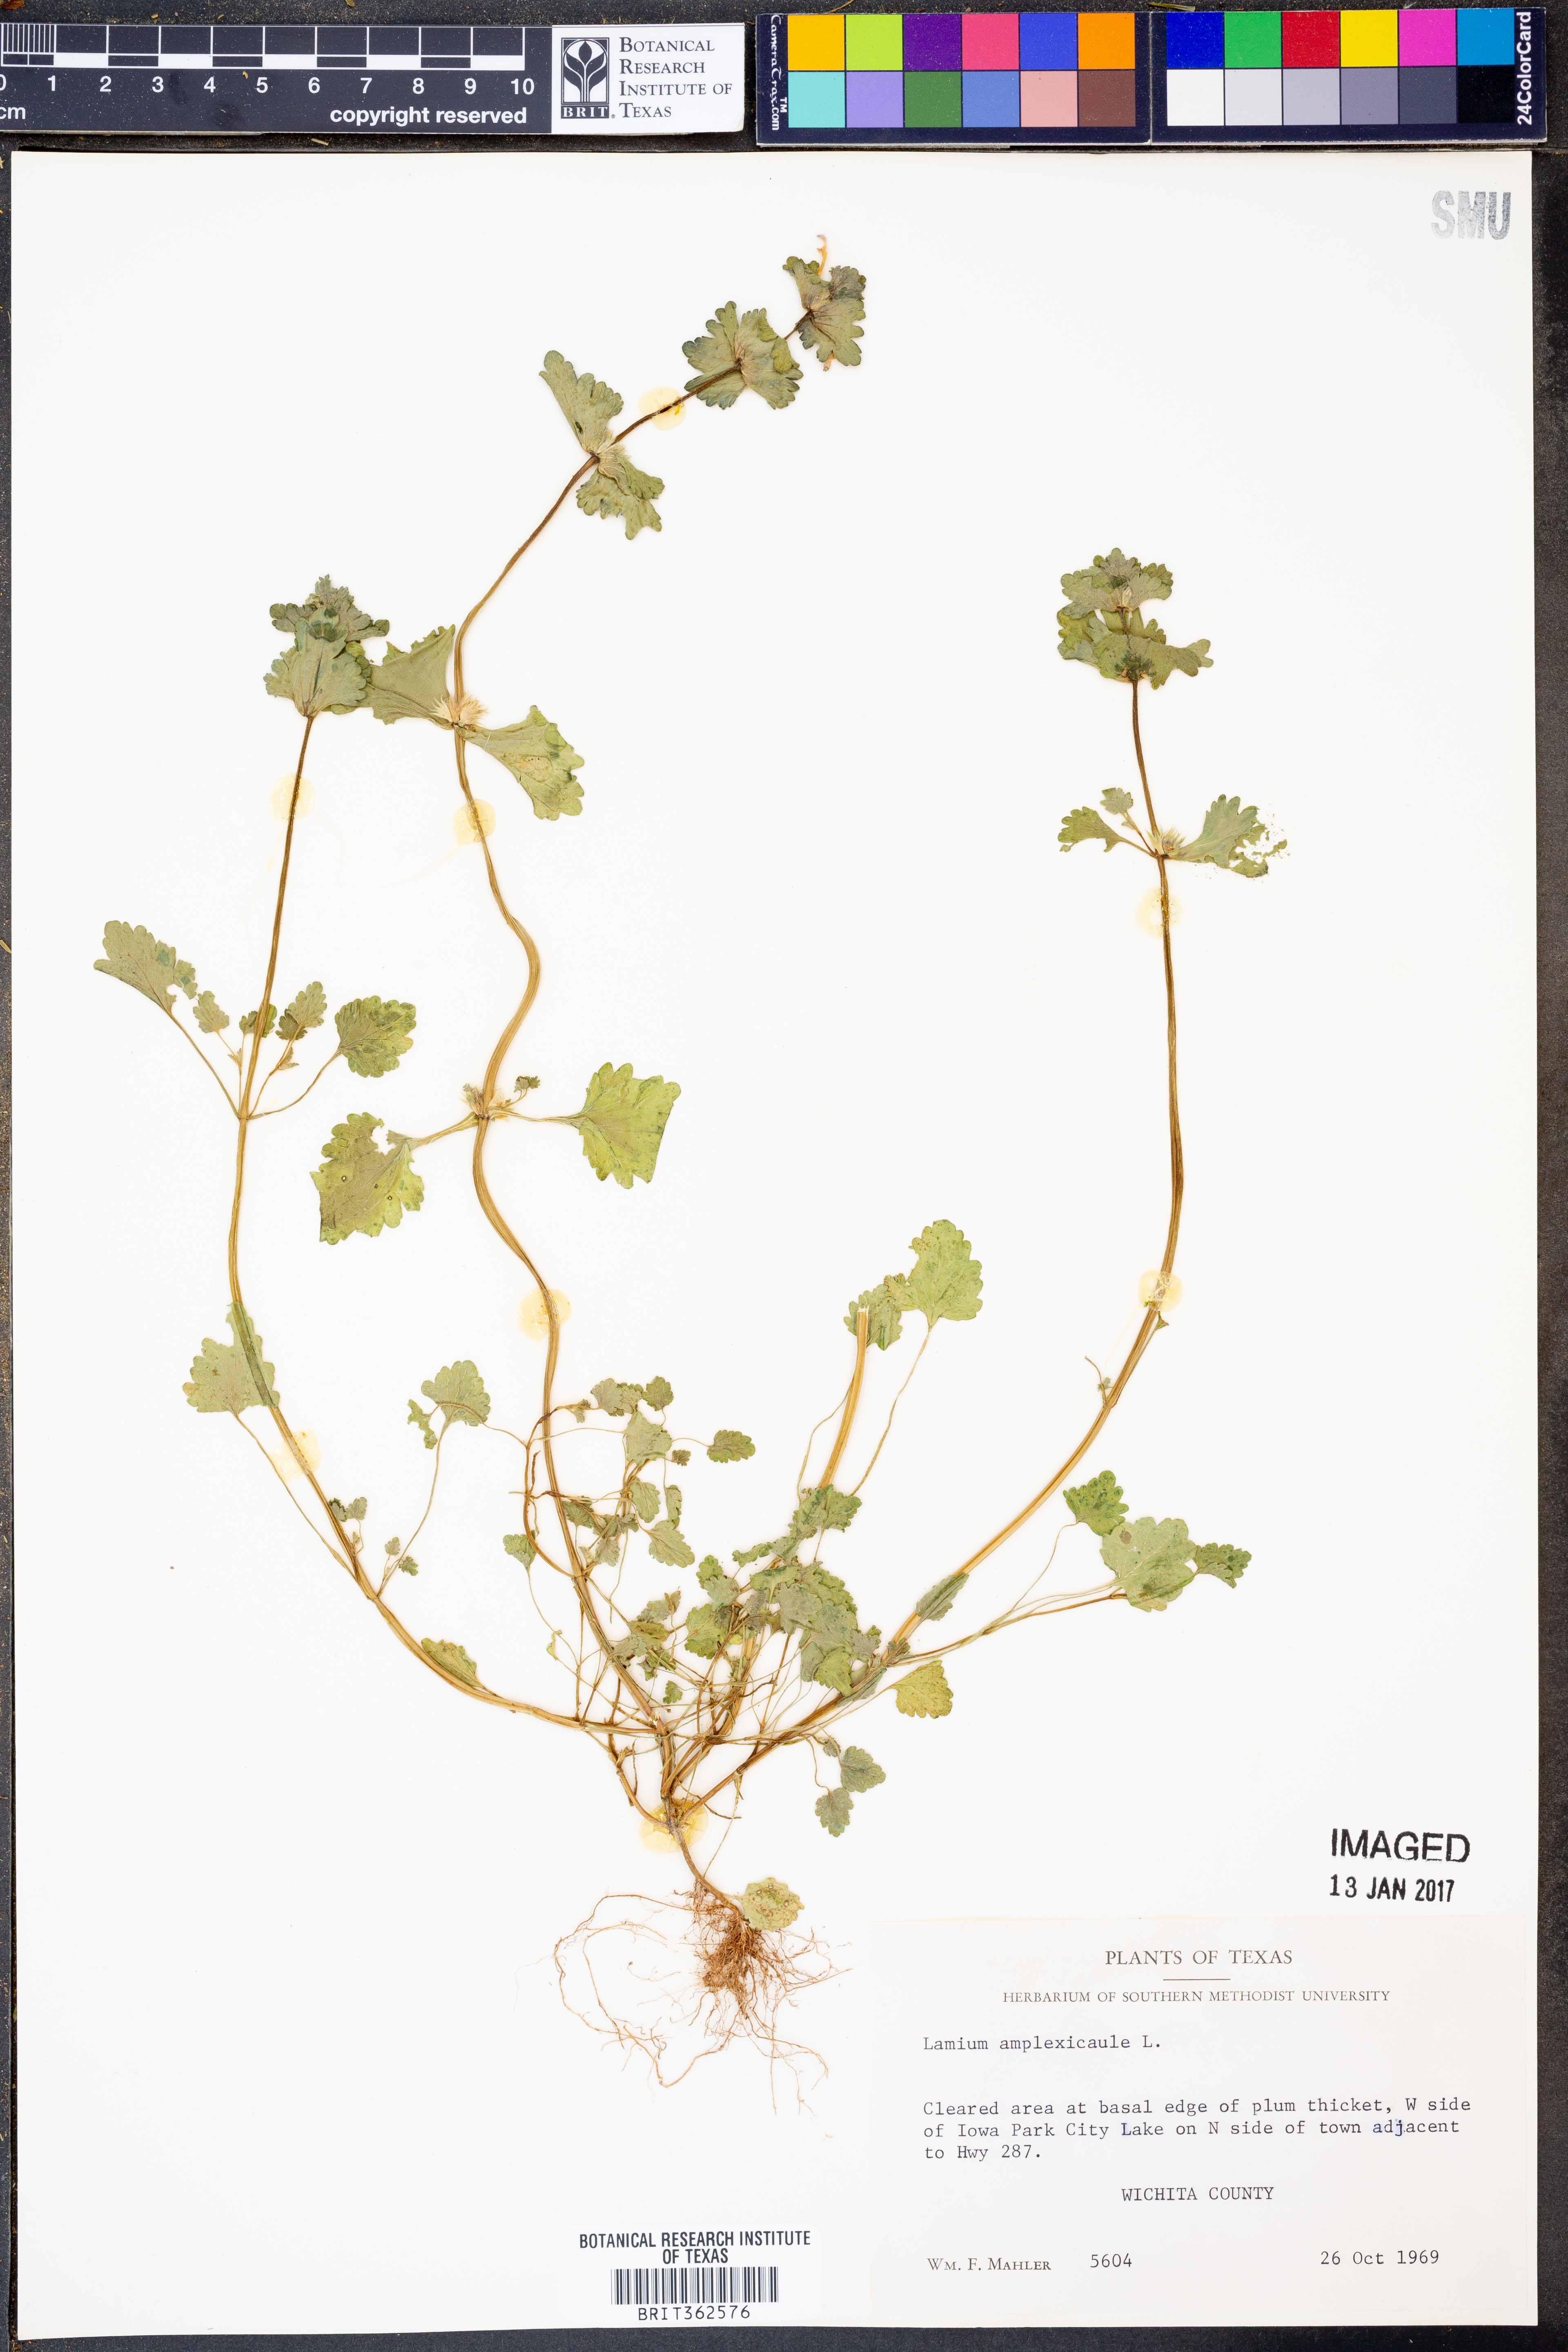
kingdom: Plantae
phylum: Tracheophyta
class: Magnoliopsida
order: Lamiales
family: Lamiaceae
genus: Lamium
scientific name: Lamium amplexicaule
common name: Henbit dead-nettle
